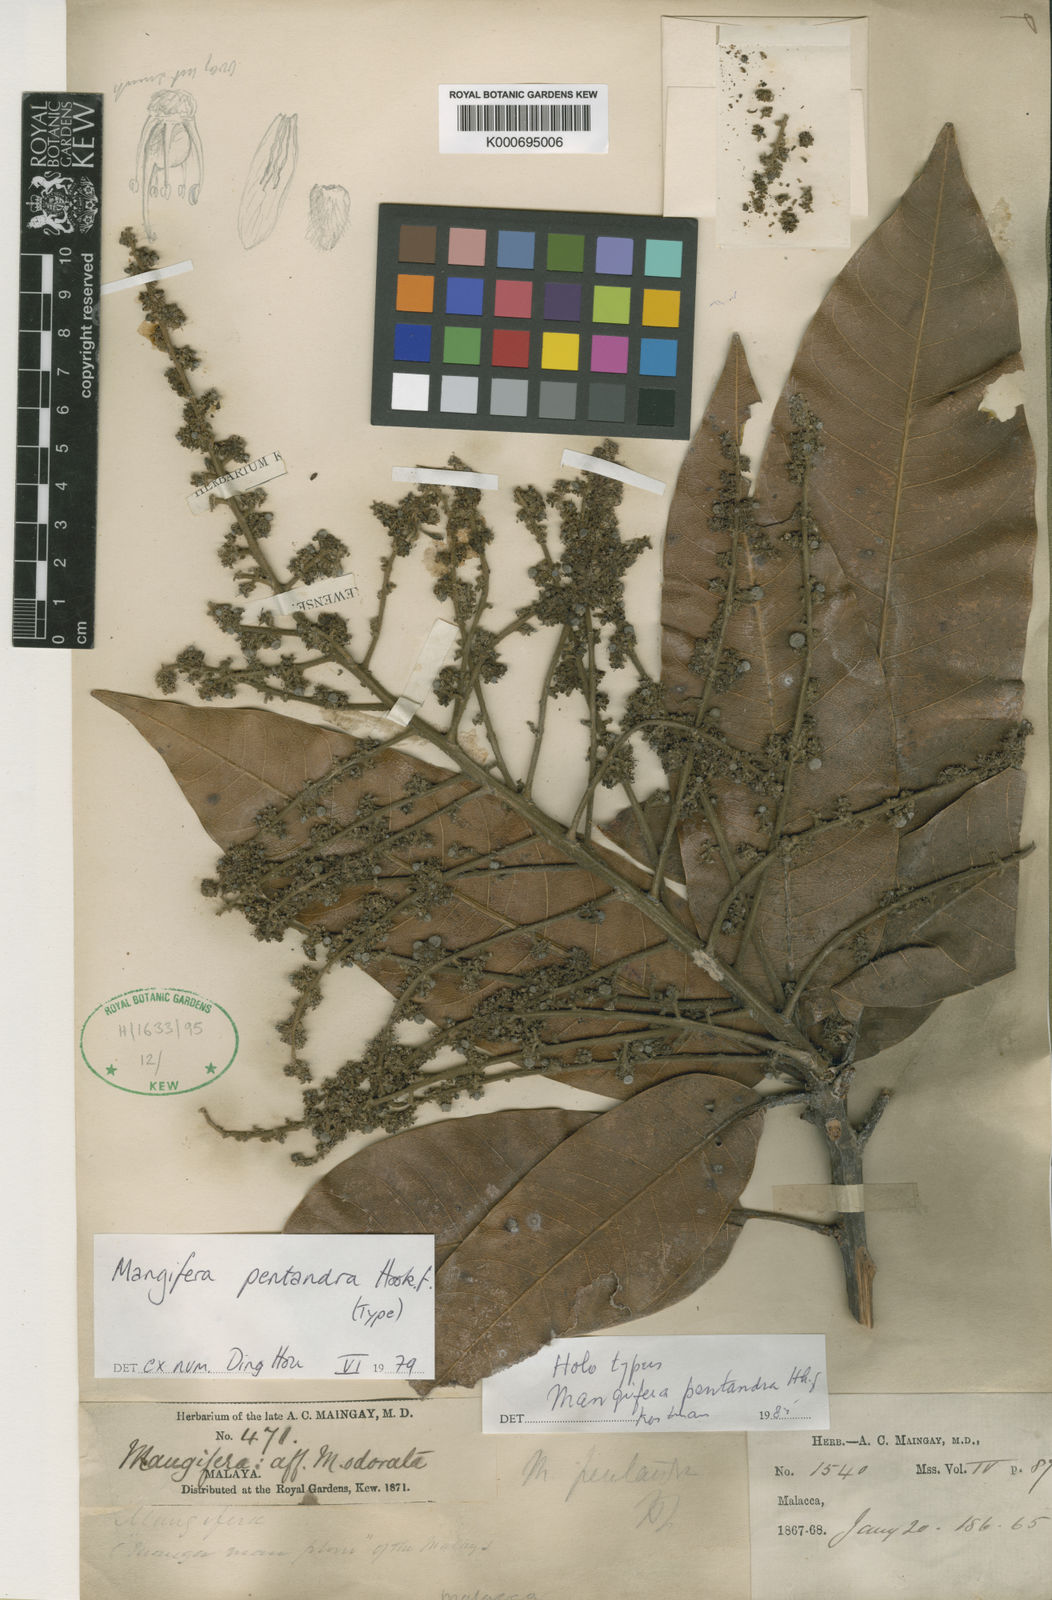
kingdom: Plantae
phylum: Tracheophyta
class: Magnoliopsida
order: Sapindales
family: Anacardiaceae
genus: Mangifera
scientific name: Mangifera pentandra
